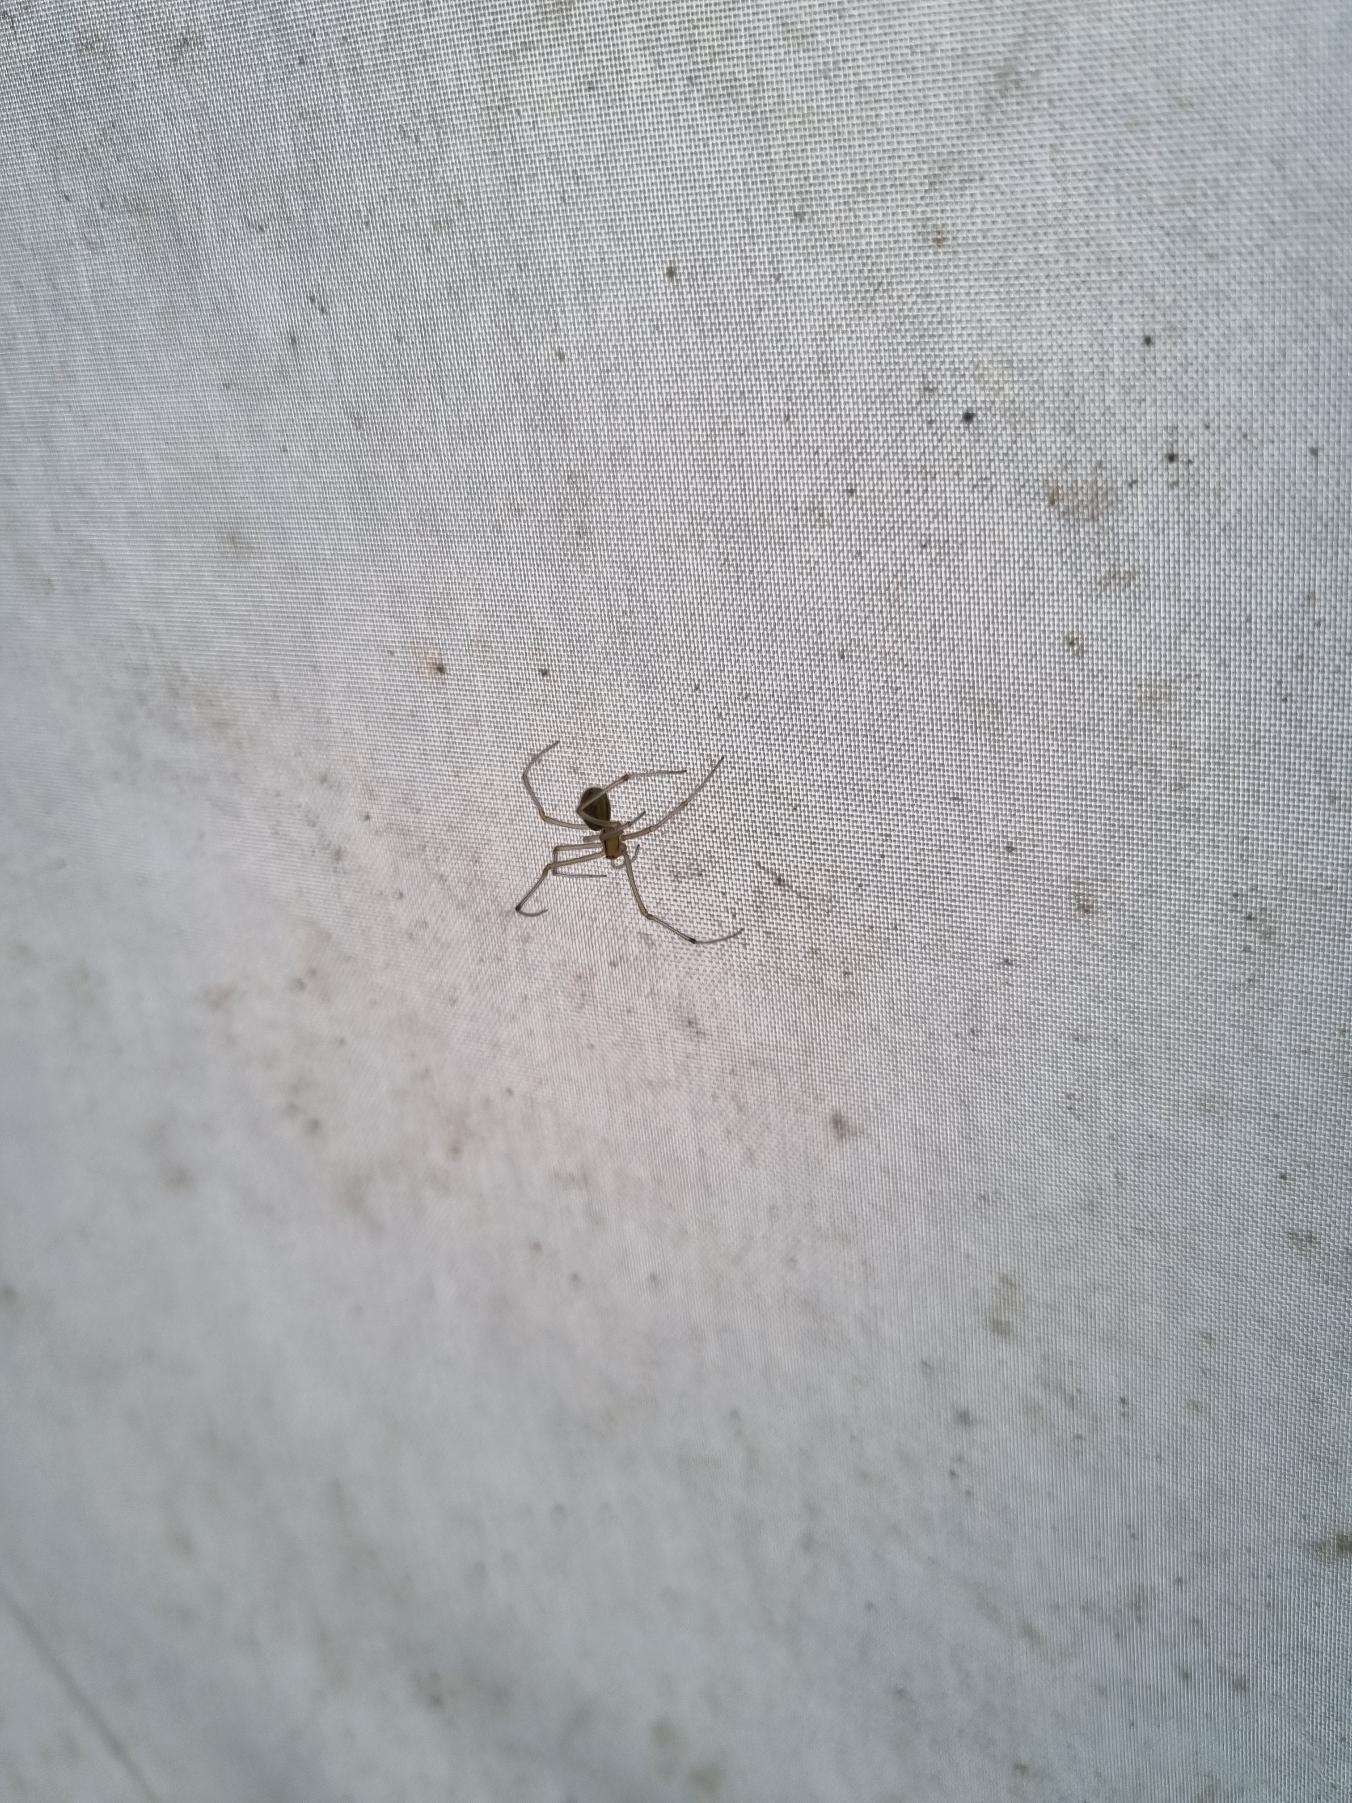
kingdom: Animalia
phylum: Arthropoda
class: Arachnida
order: Araneae
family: Theridiidae
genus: Enoplognatha
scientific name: Enoplognatha
